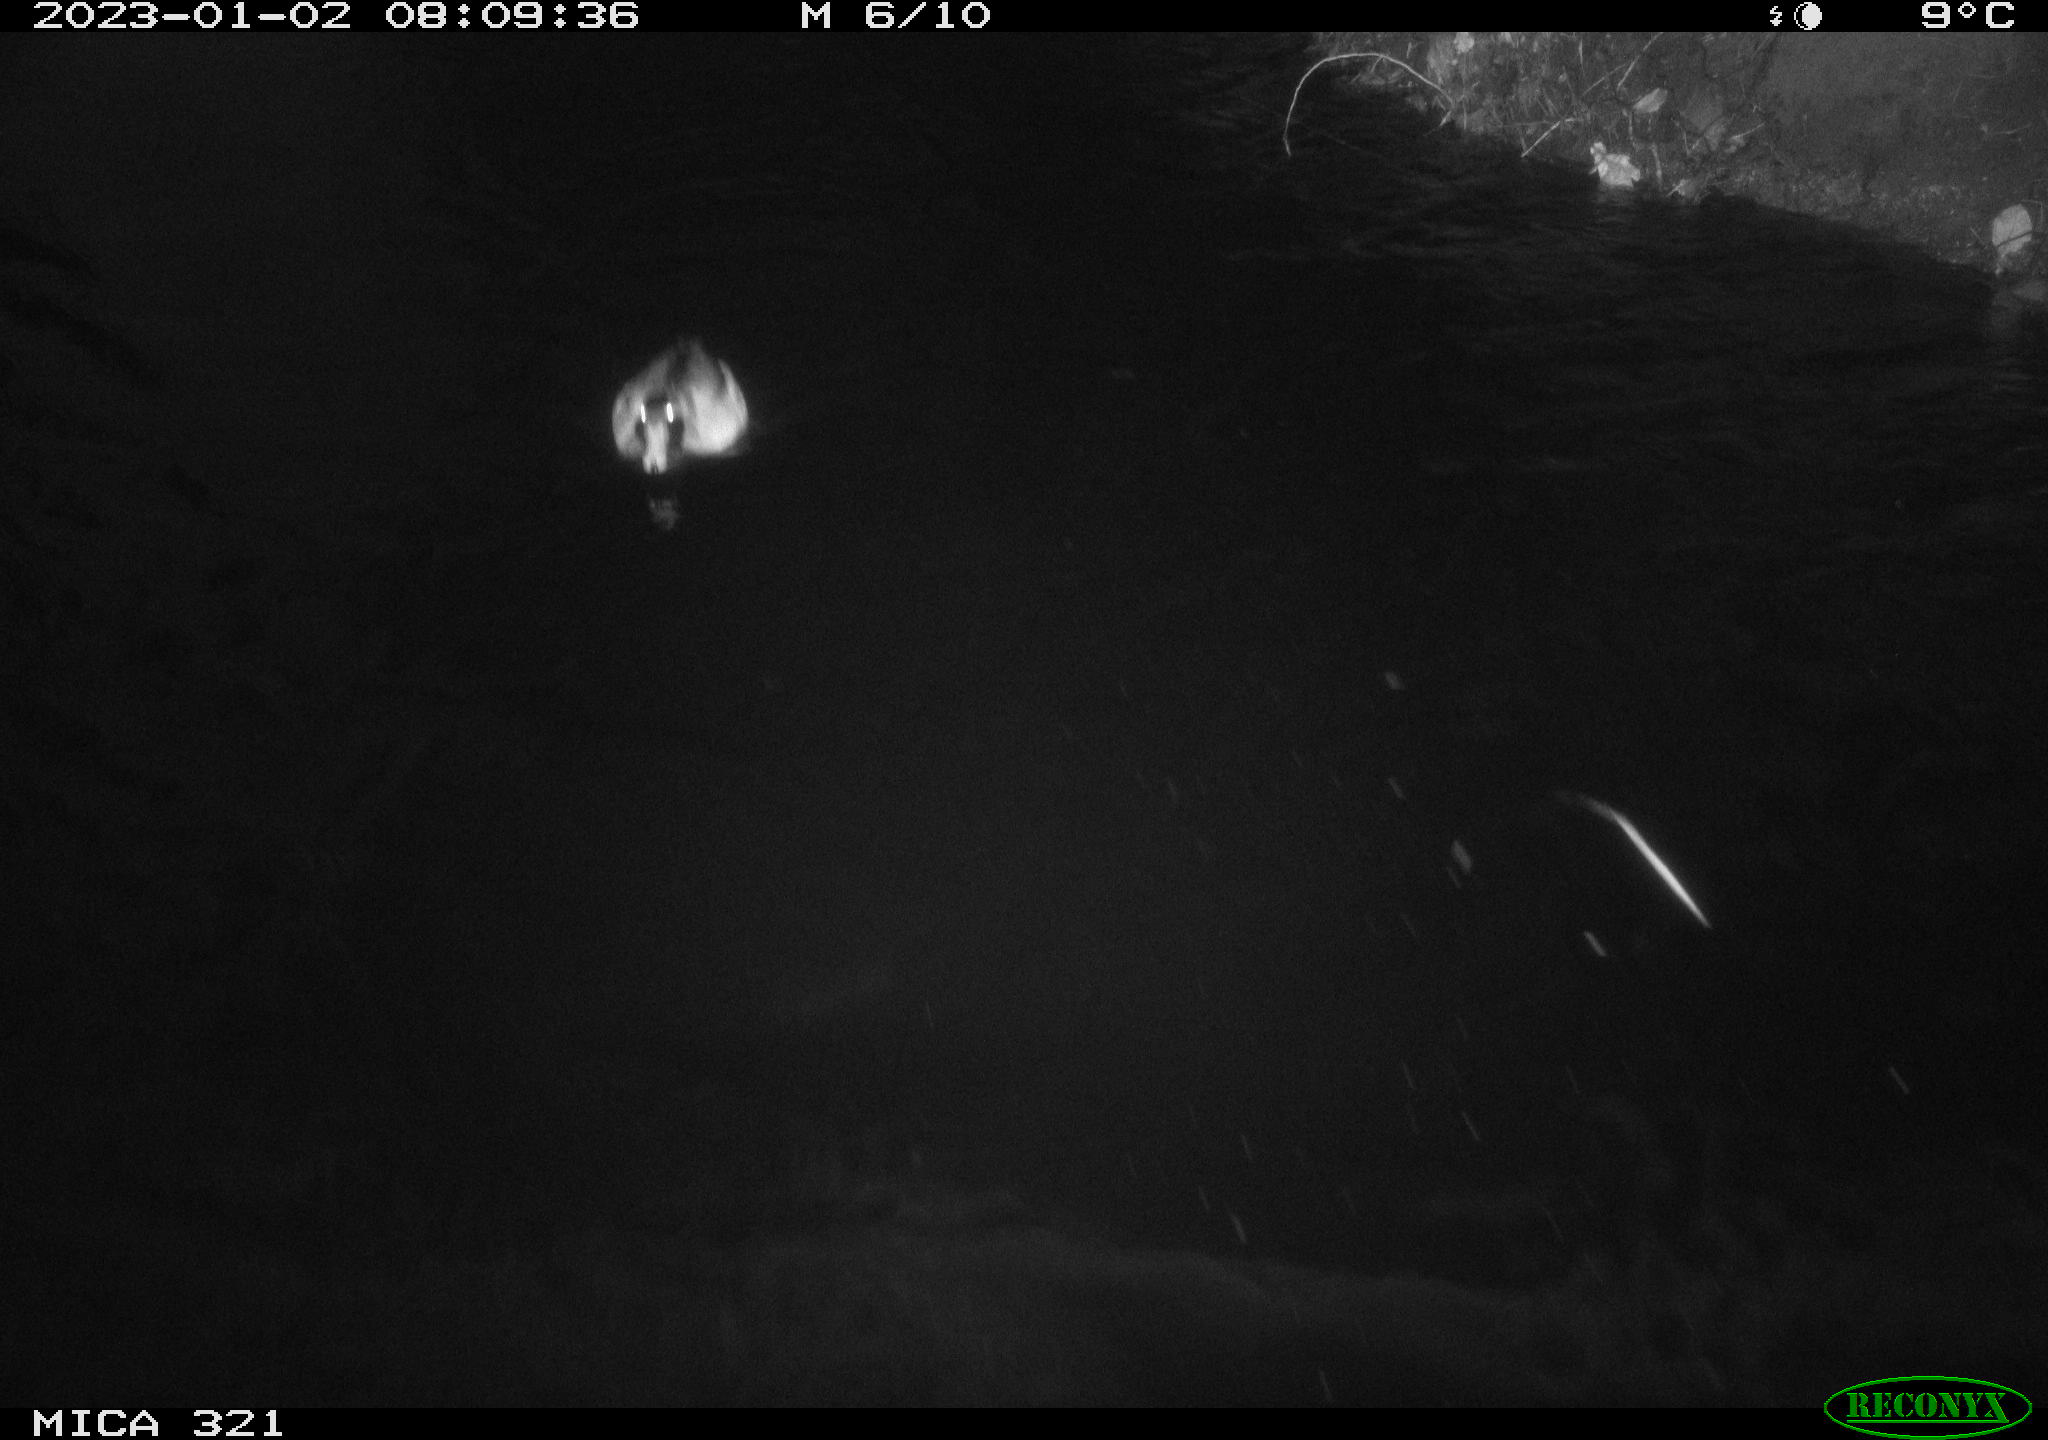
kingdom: Animalia
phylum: Chordata
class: Aves
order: Anseriformes
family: Anatidae
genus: Anas
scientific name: Anas
